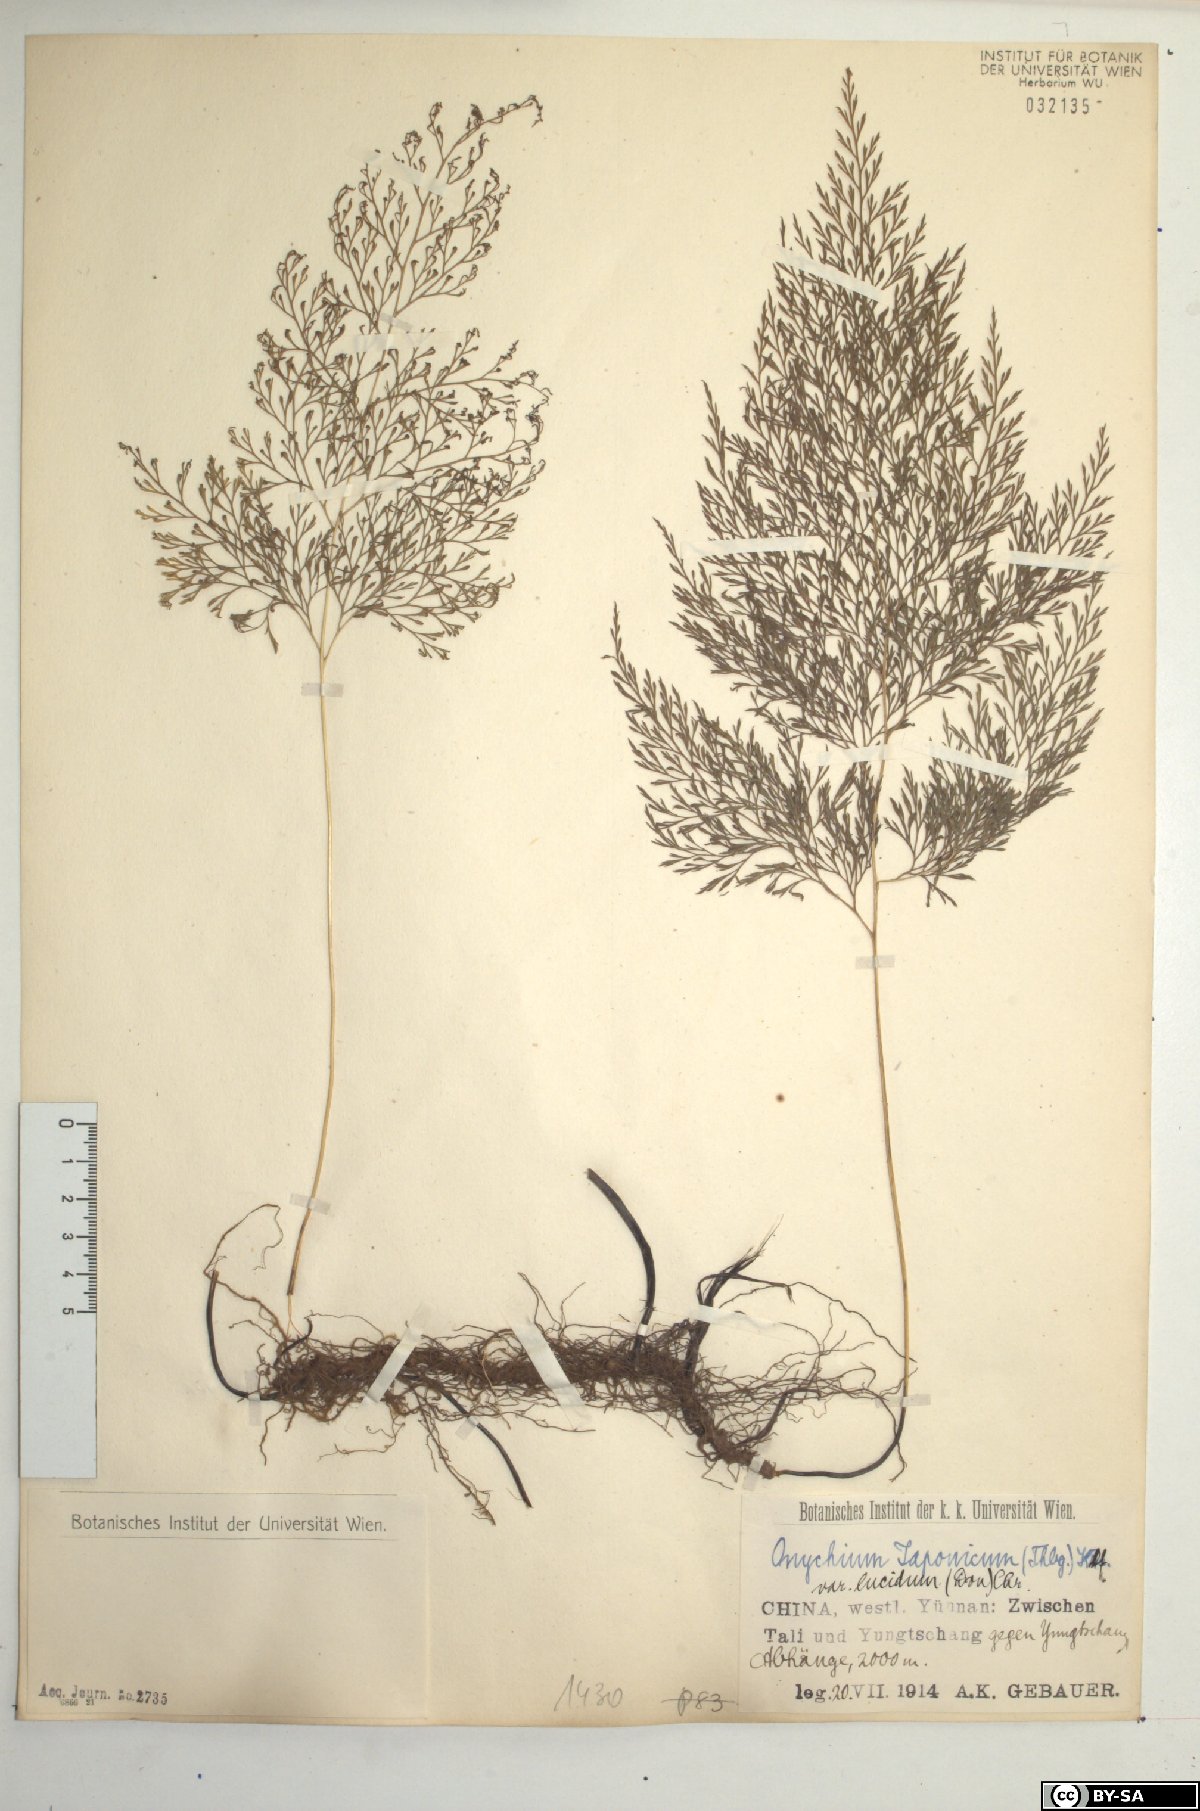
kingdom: Plantae
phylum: Tracheophyta
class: Polypodiopsida
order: Polypodiales
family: Pteridaceae
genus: Onychium
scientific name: Onychium lucidum
